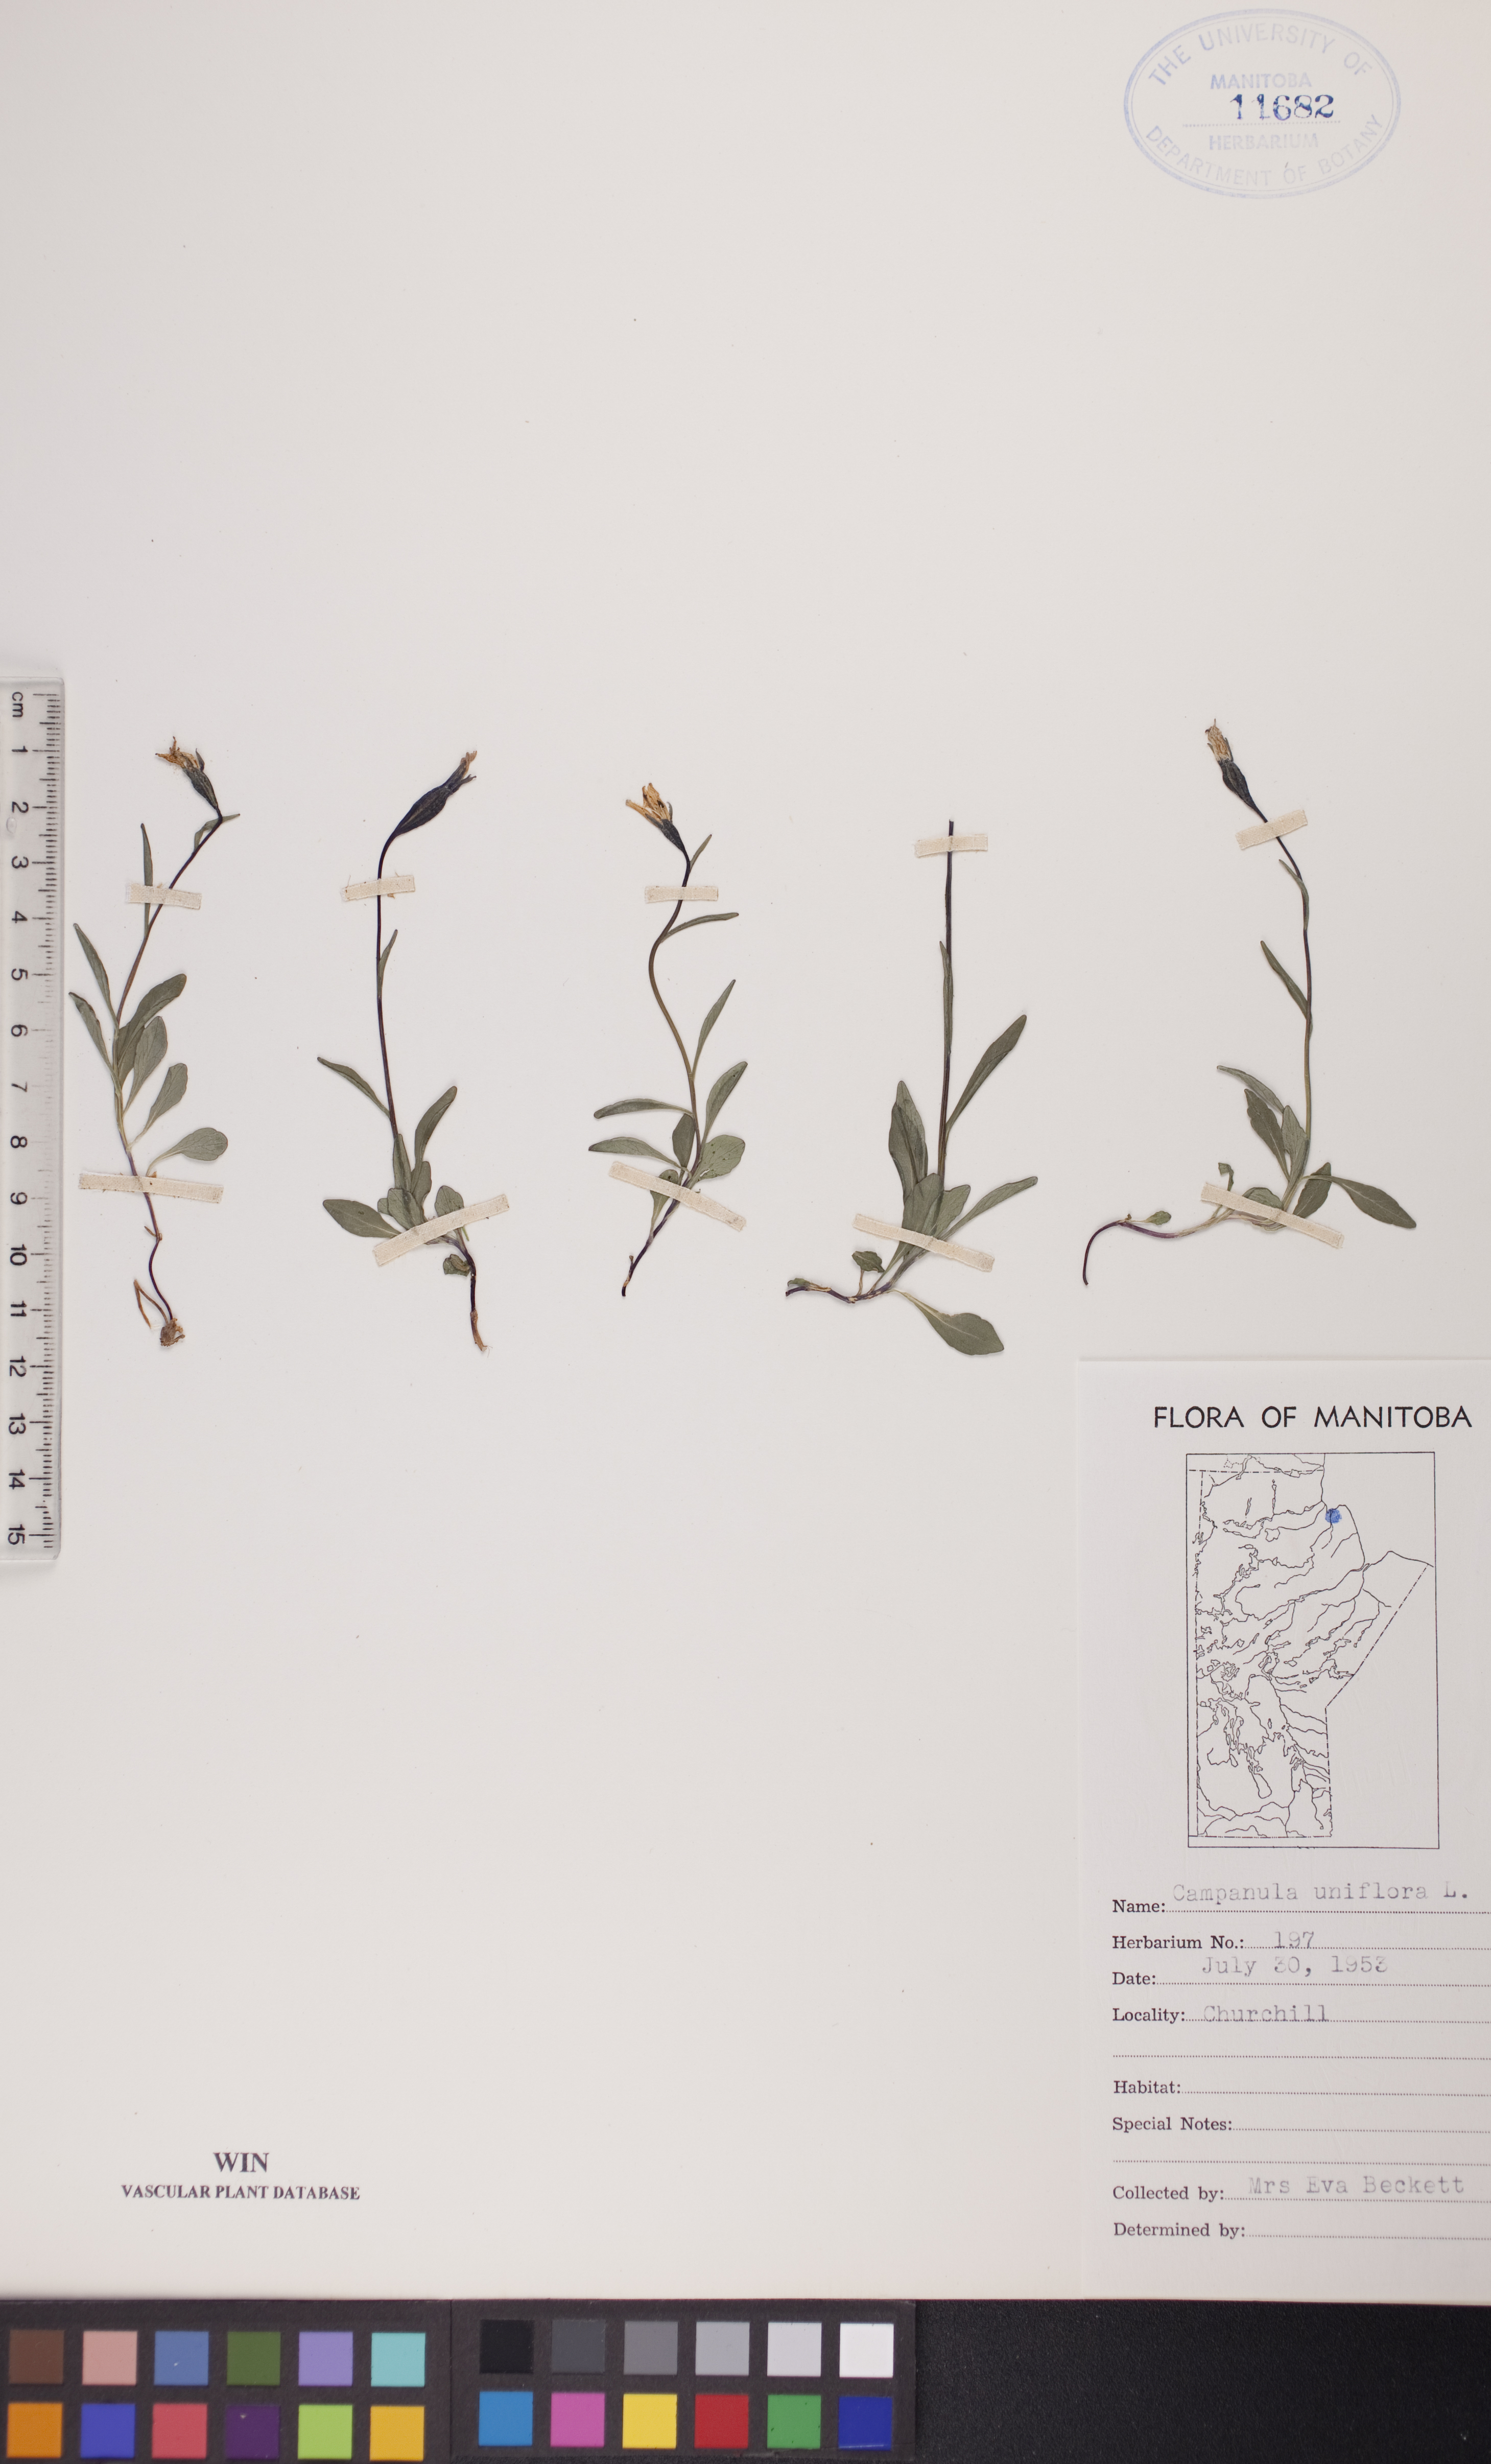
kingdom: Plantae
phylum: Tracheophyta
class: Magnoliopsida
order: Asterales
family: Campanulaceae
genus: Melanocalyx
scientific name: Melanocalyx uniflora
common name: Alpine harebell
